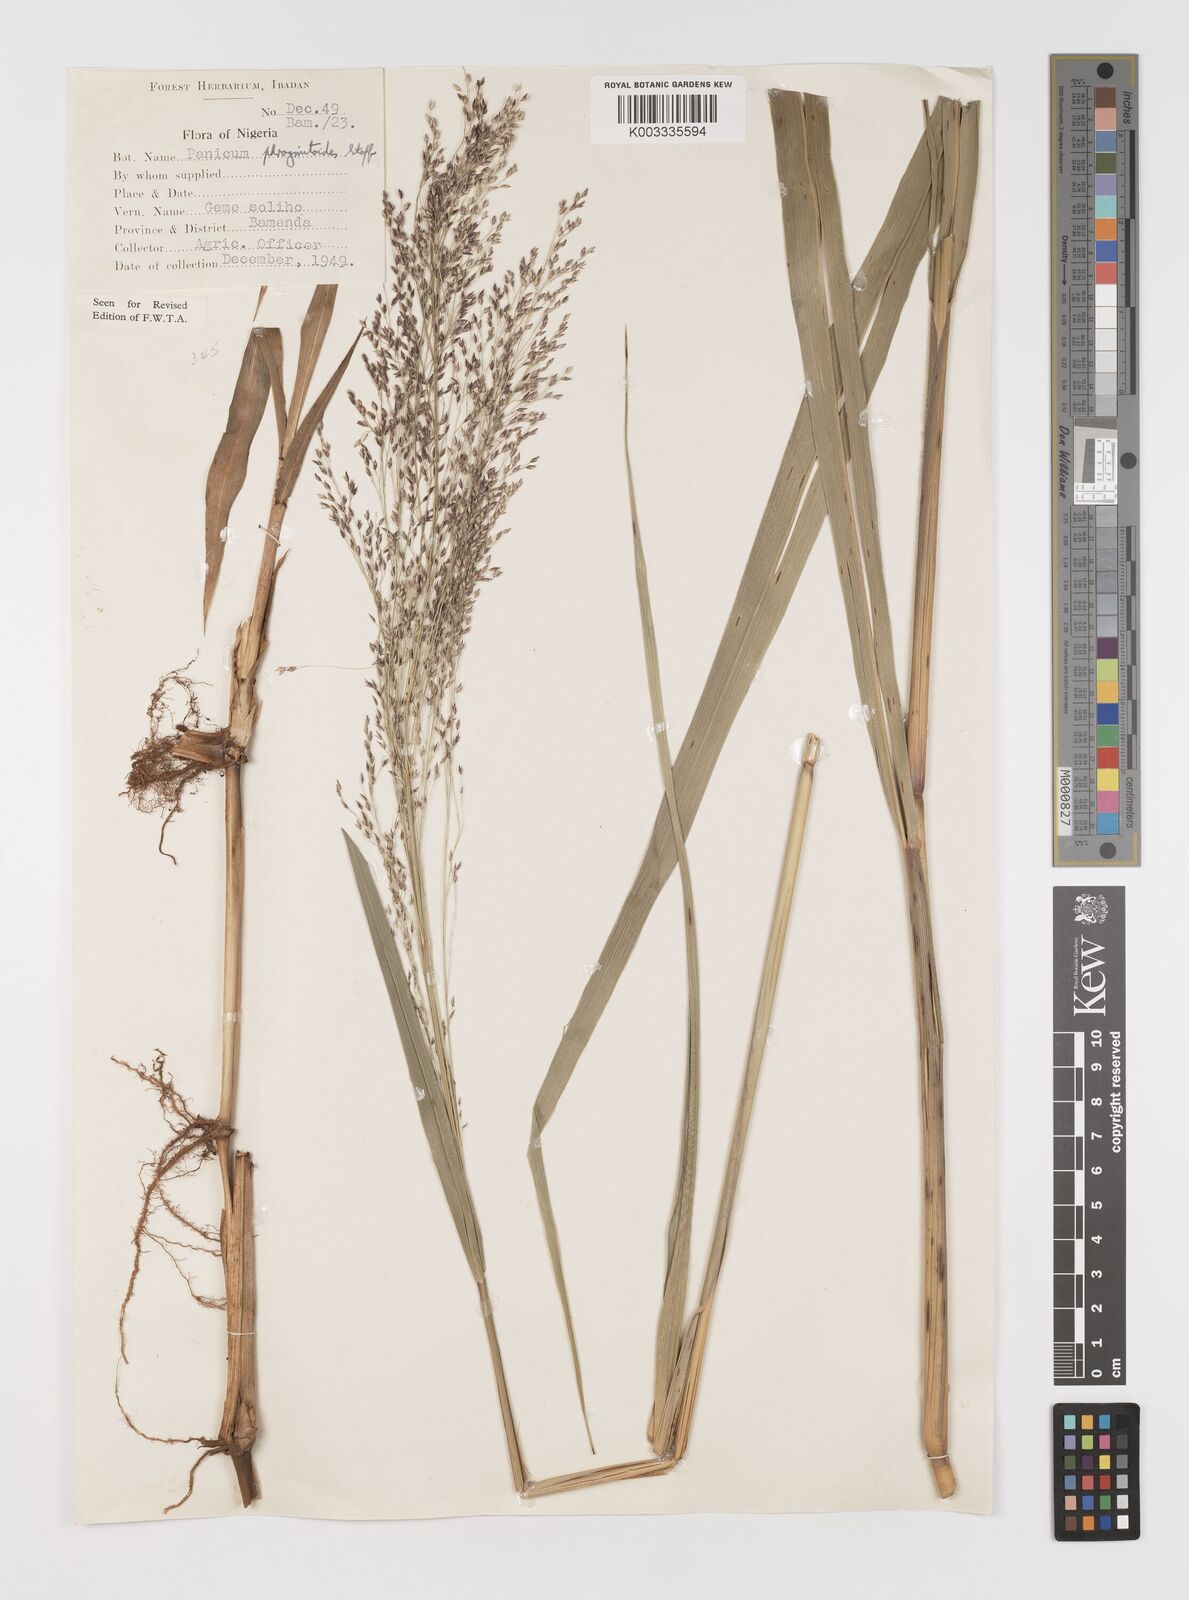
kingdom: Plantae
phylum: Tracheophyta
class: Liliopsida
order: Poales
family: Poaceae
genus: Panicum
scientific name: Panicum phragmitoides
